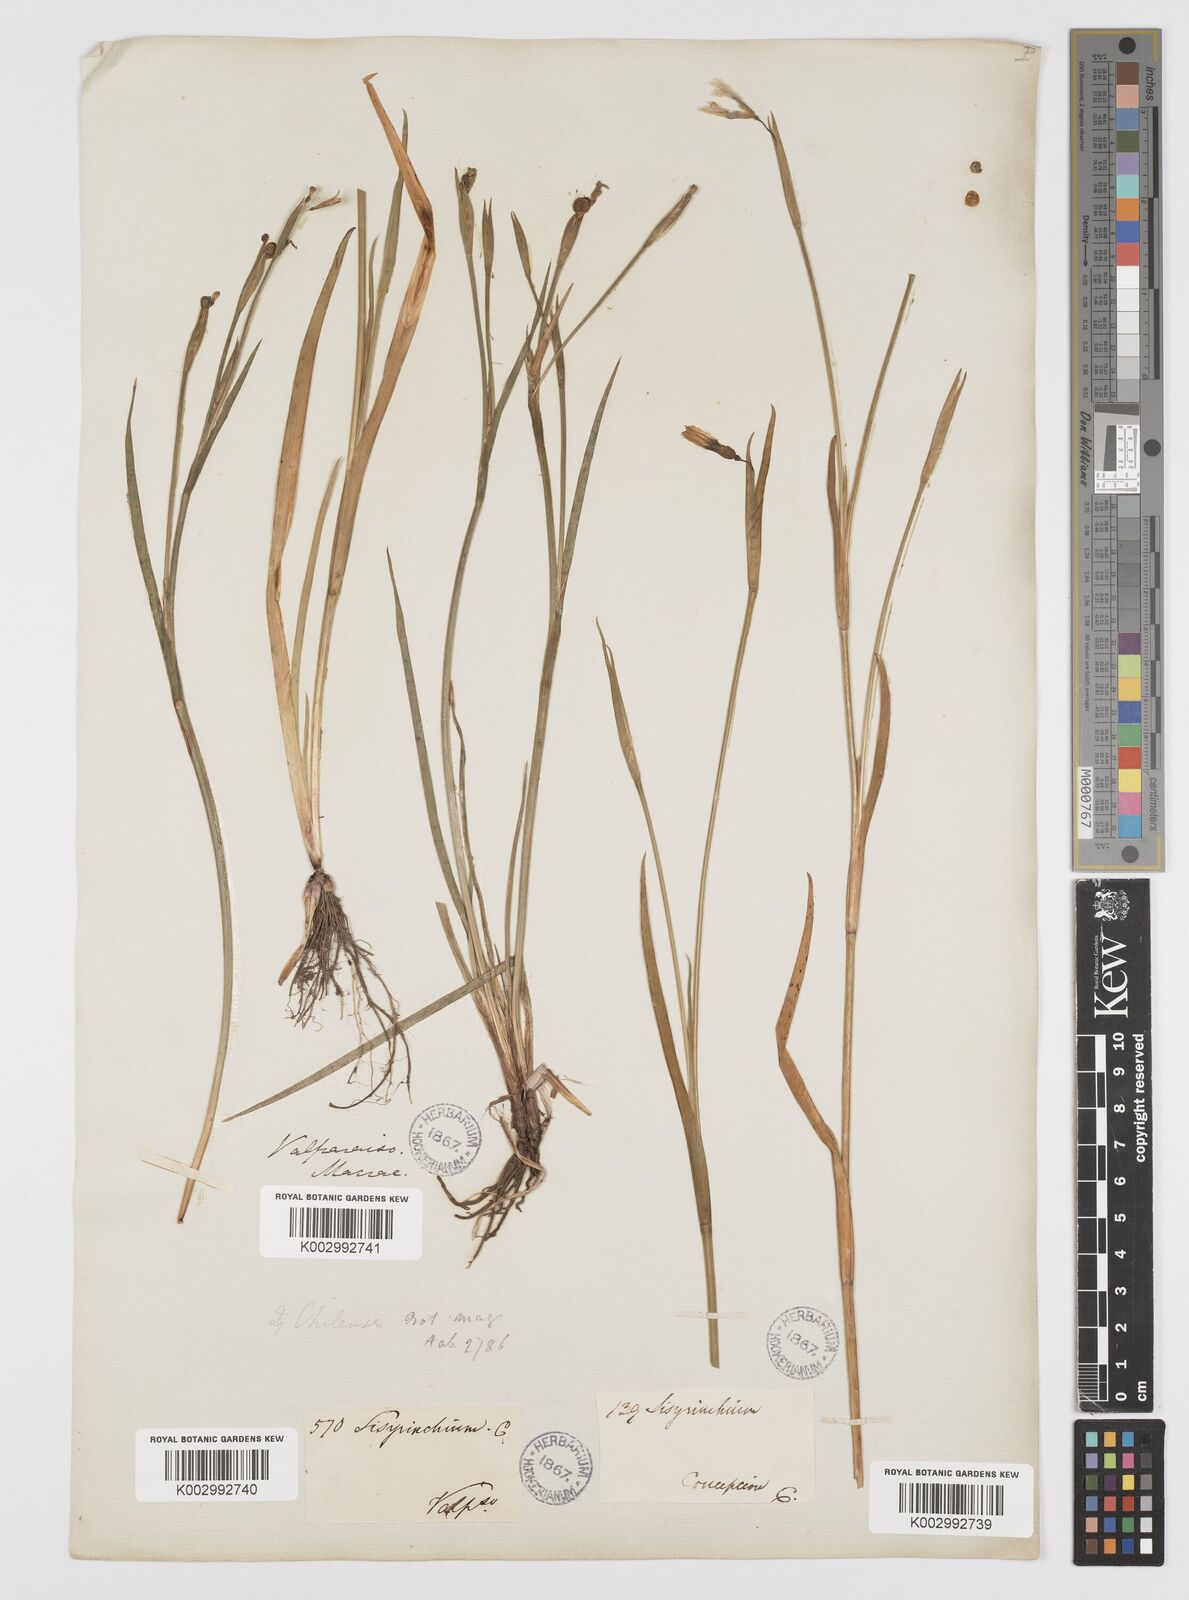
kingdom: Plantae
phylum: Tracheophyta
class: Liliopsida
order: Asparagales
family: Iridaceae
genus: Sisyrinchium
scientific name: Sisyrinchium chilense
